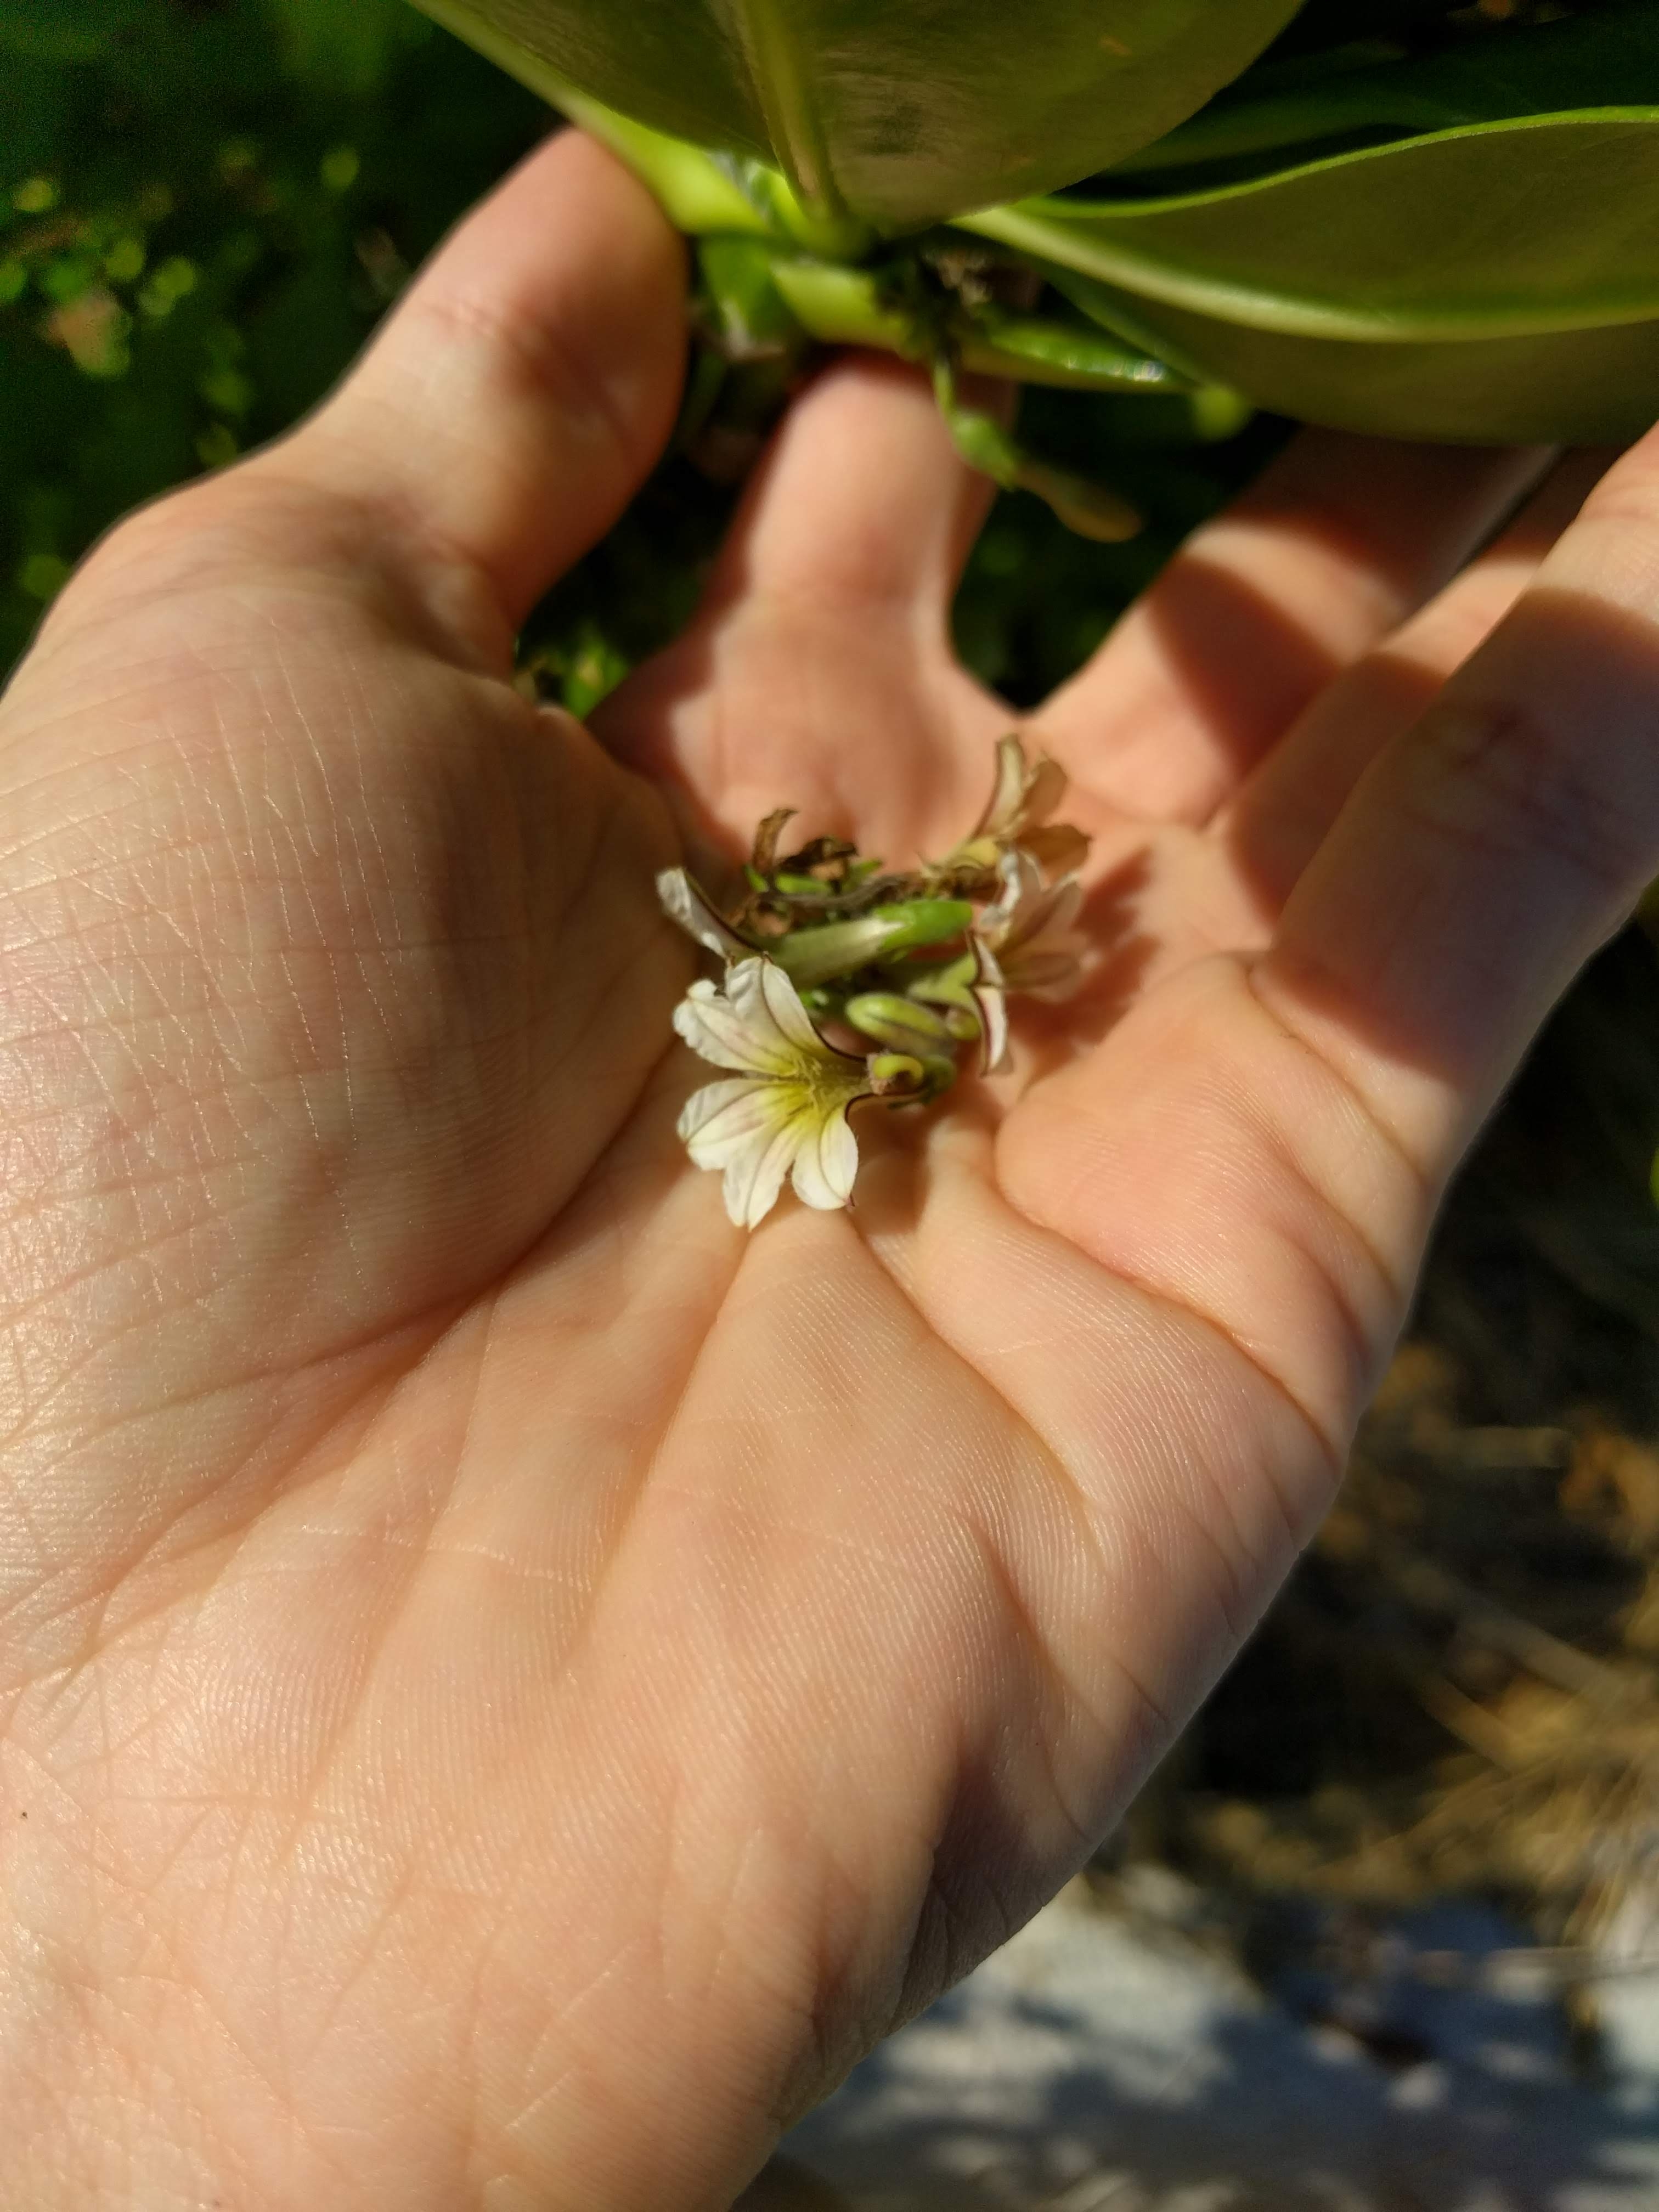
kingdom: Plantae
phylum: Tracheophyta
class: Magnoliopsida
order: Asterales
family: Goodeniaceae
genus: Scaevola
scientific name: Scaevola taccada
